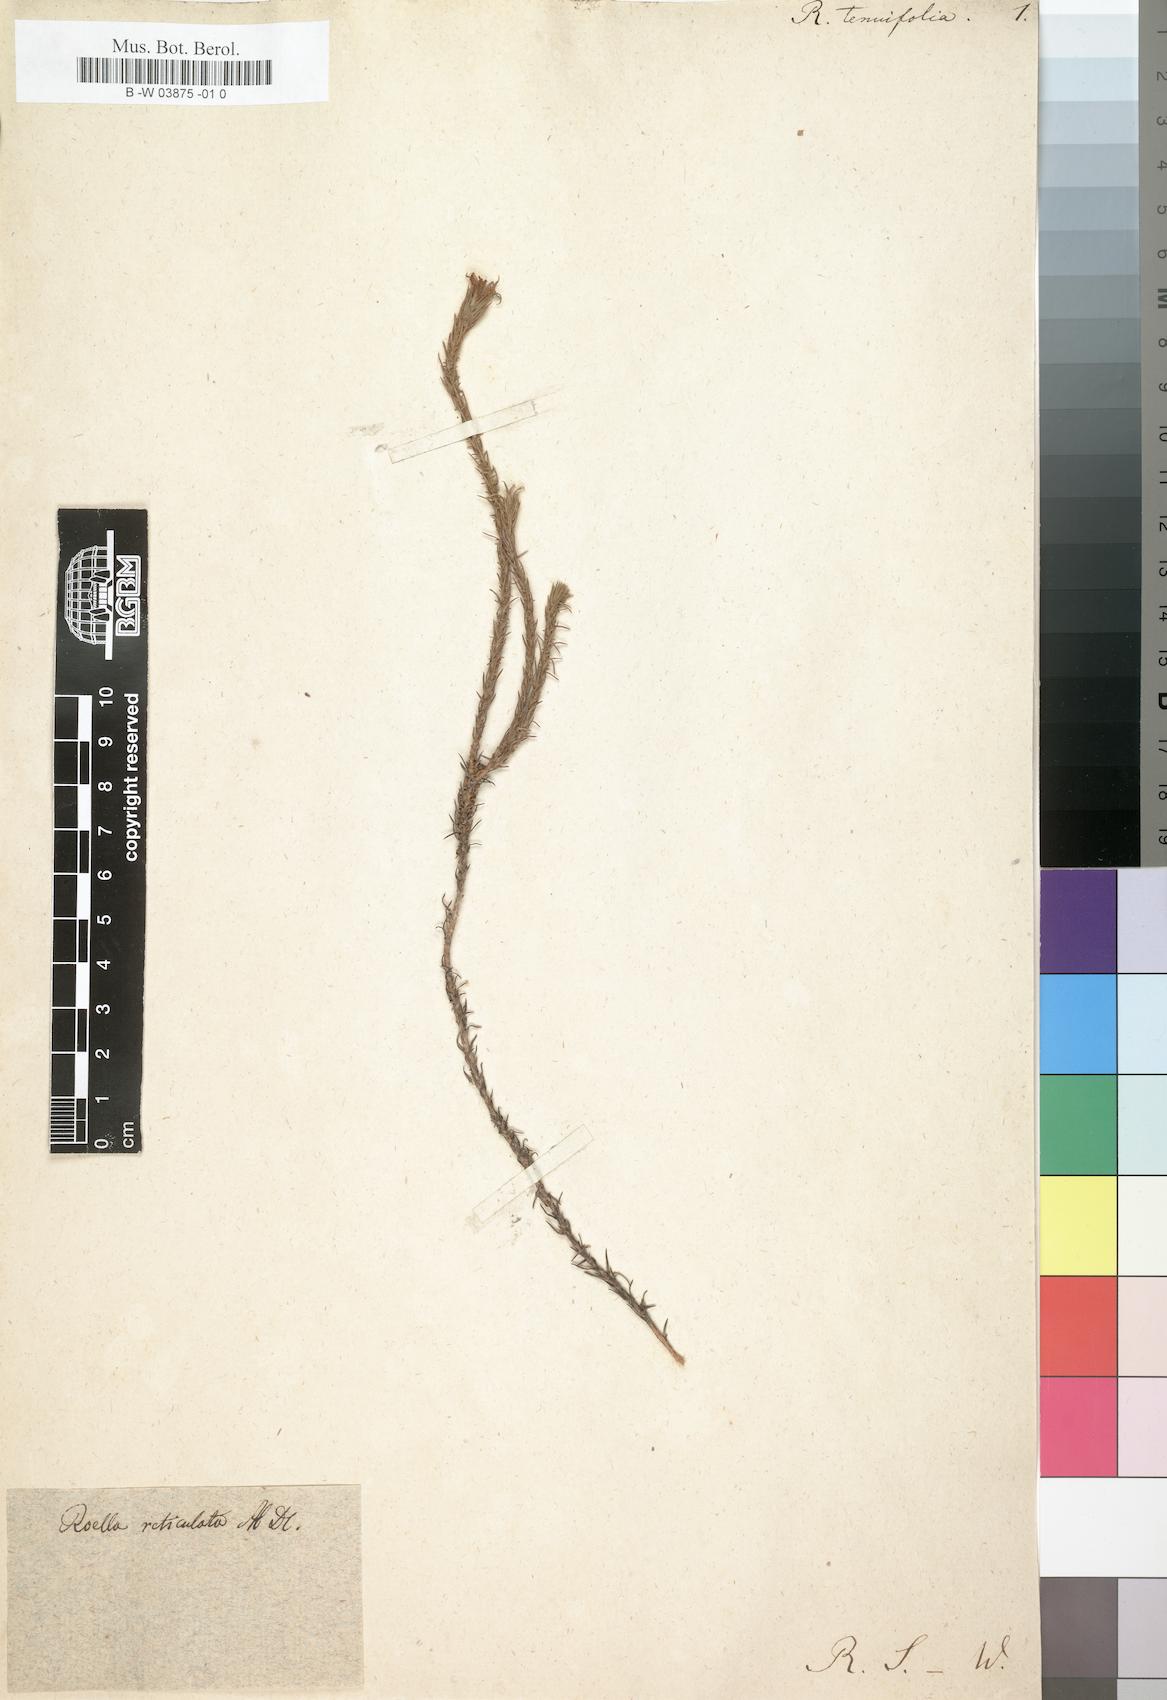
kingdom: Plantae
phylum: Tracheophyta
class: Magnoliopsida
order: Asterales
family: Campanulaceae
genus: Merciera
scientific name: Merciera tenuifolia
